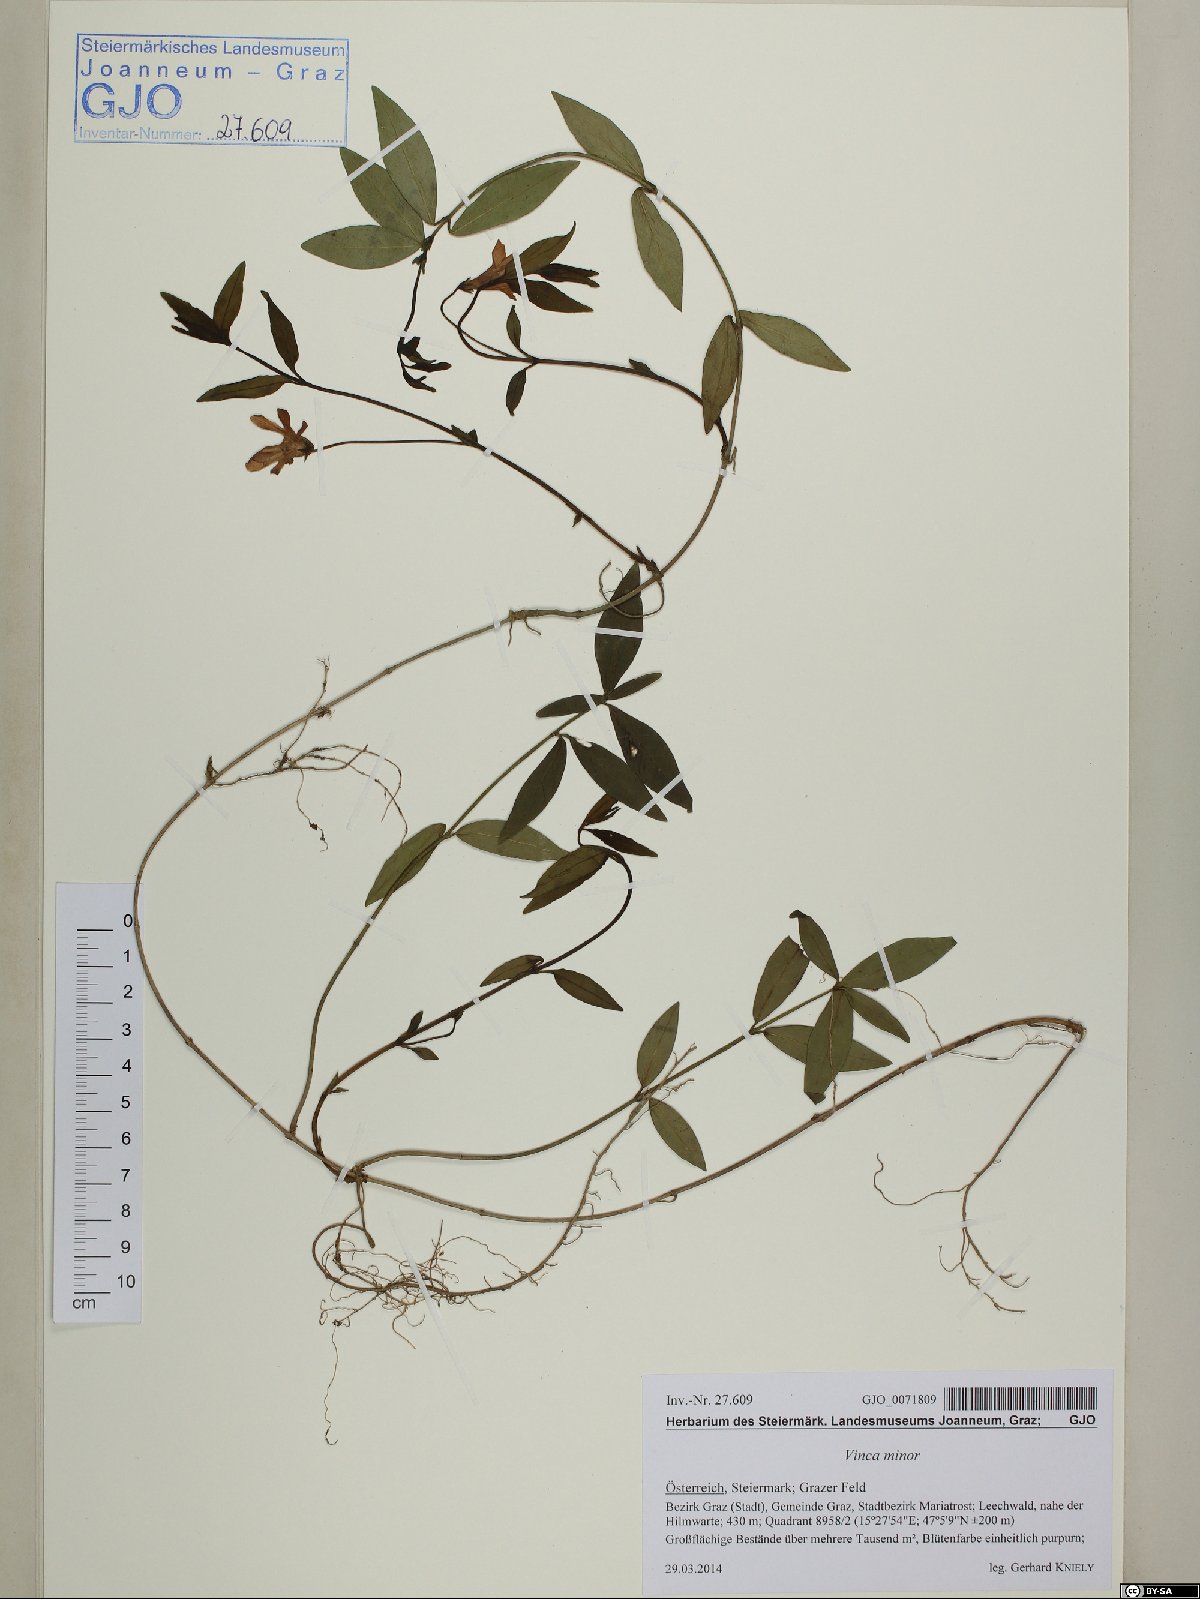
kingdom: Plantae
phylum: Tracheophyta
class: Magnoliopsida
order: Gentianales
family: Apocynaceae
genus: Vinca
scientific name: Vinca minor
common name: Lesser periwinkle
